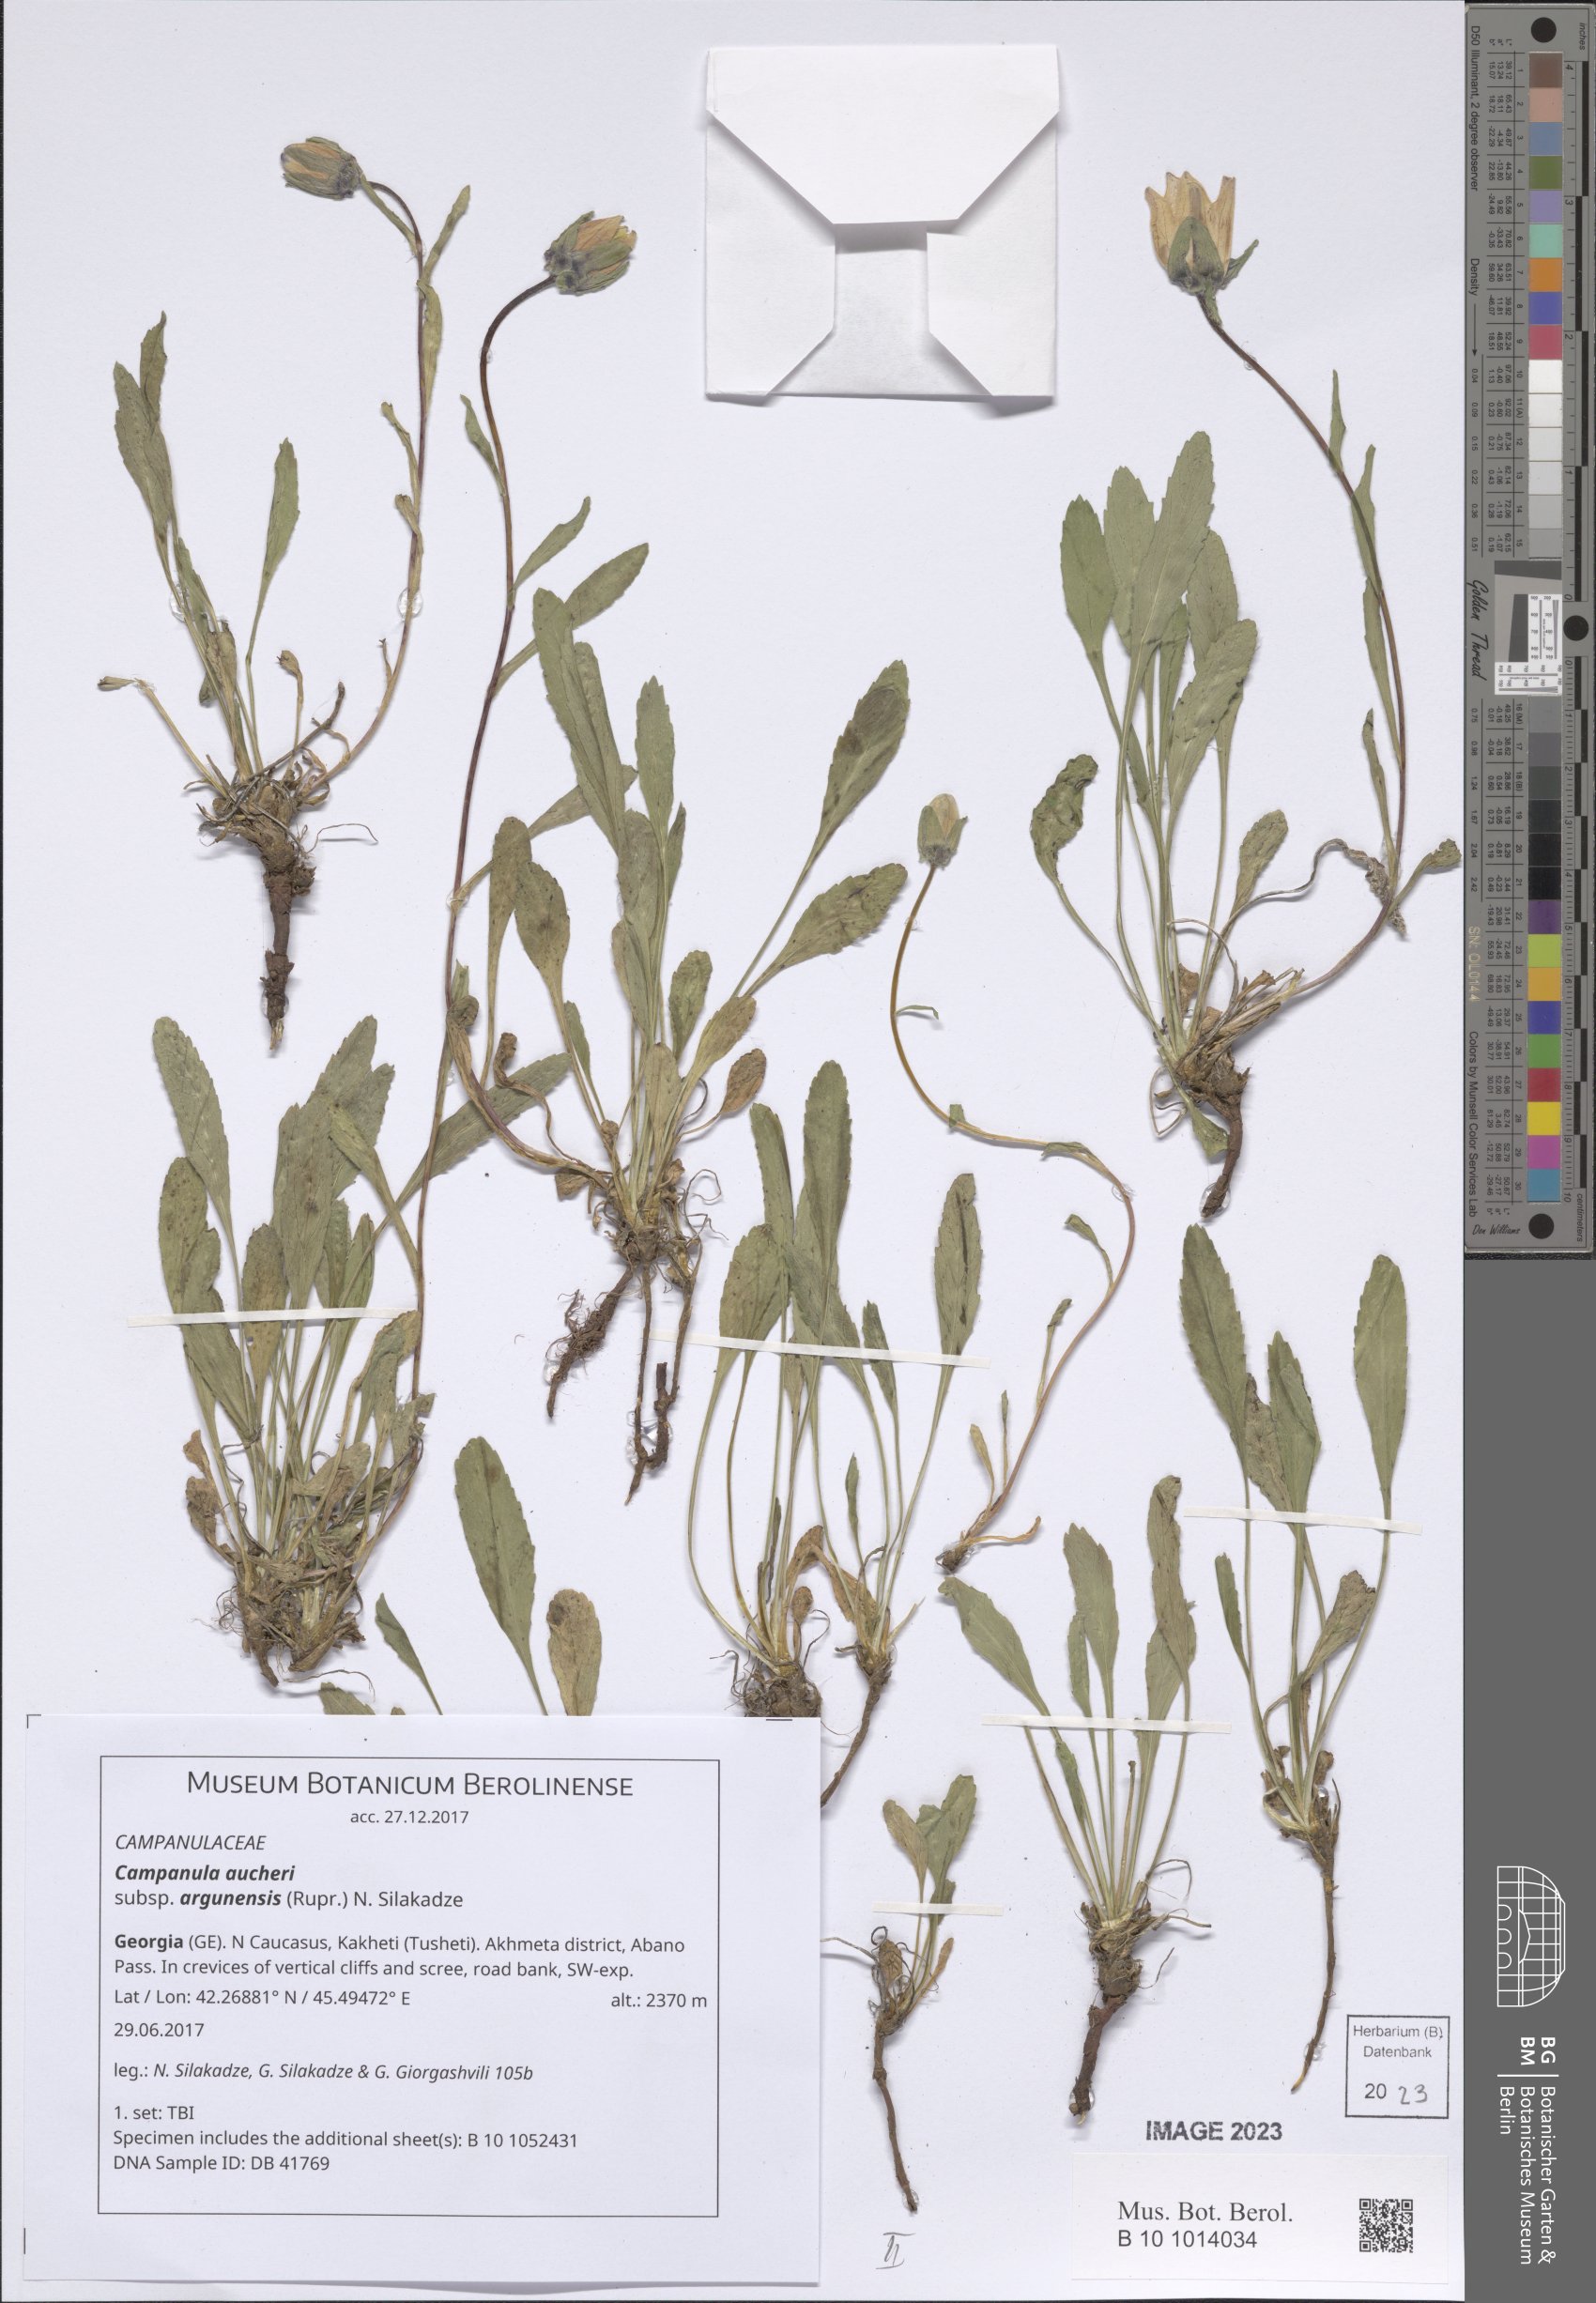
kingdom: Plantae
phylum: Tracheophyta
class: Magnoliopsida
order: Asterales
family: Campanulaceae
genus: Campanula
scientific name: Campanula saxifraga
